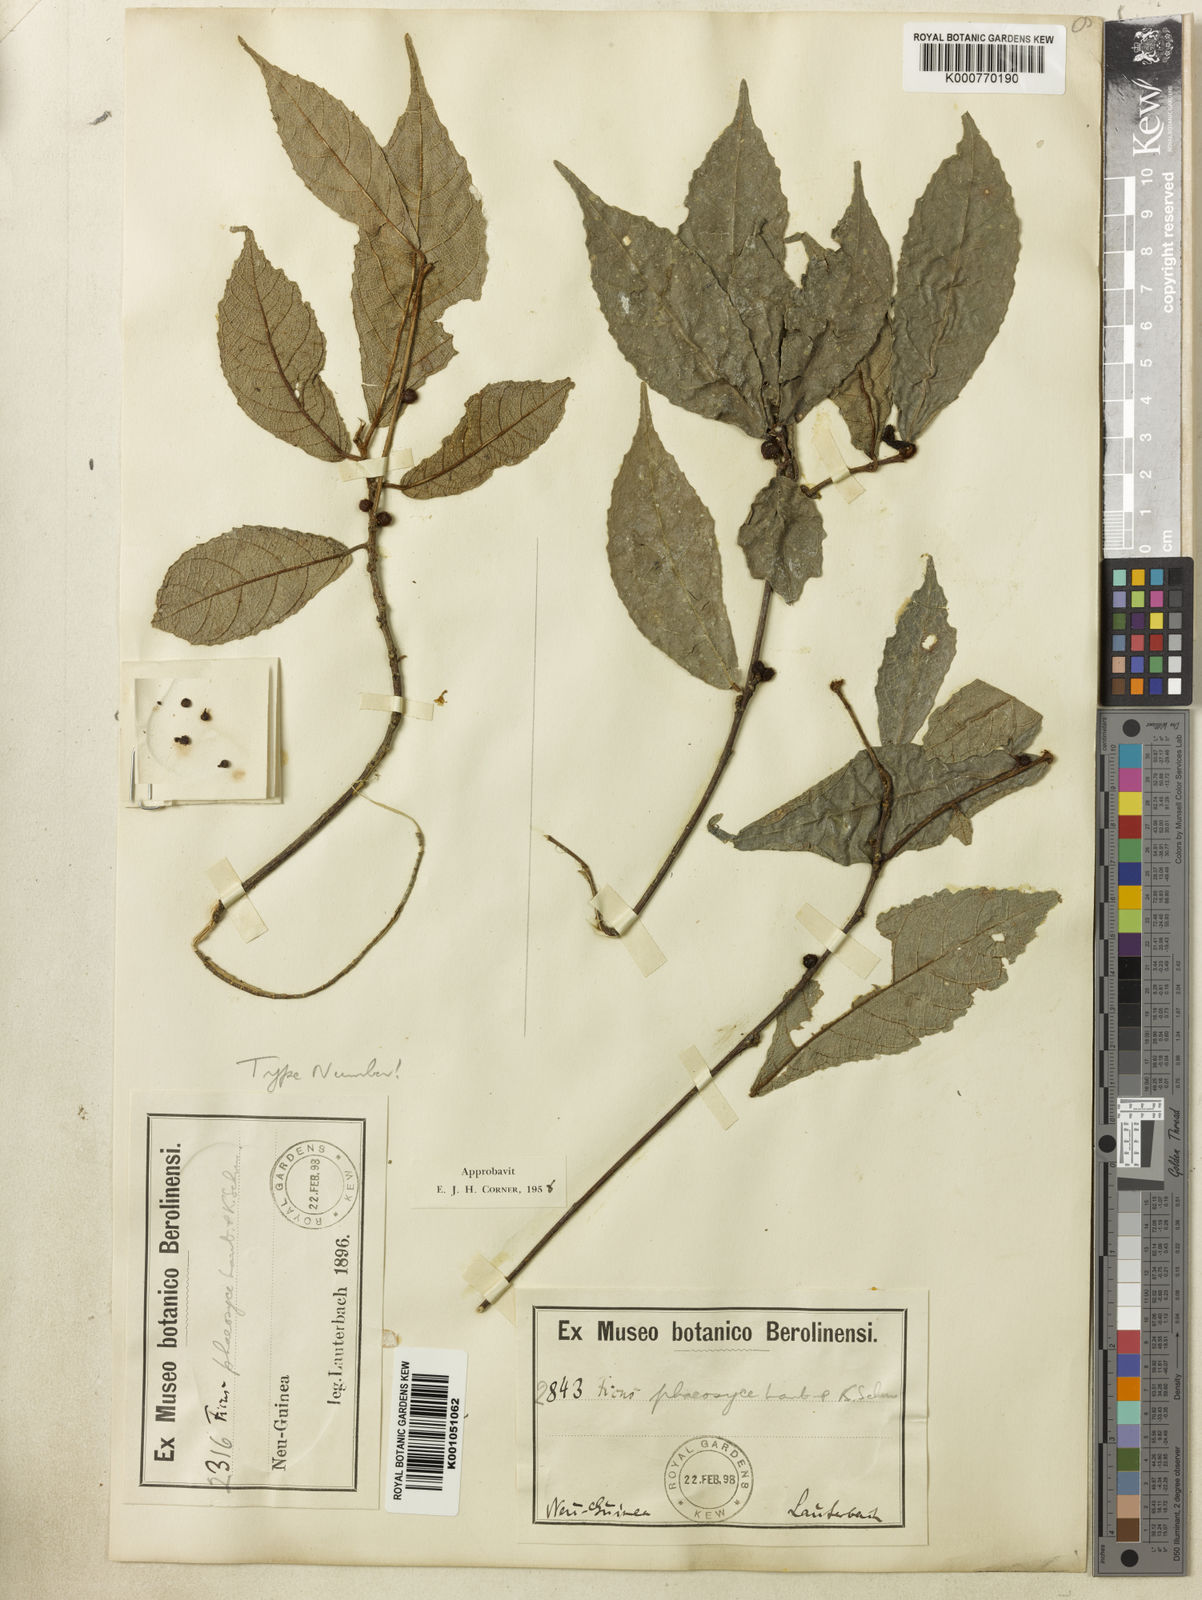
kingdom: Plantae
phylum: Tracheophyta
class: Magnoliopsida
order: Rosales
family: Moraceae
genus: Ficus
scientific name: Ficus phaeosyce
